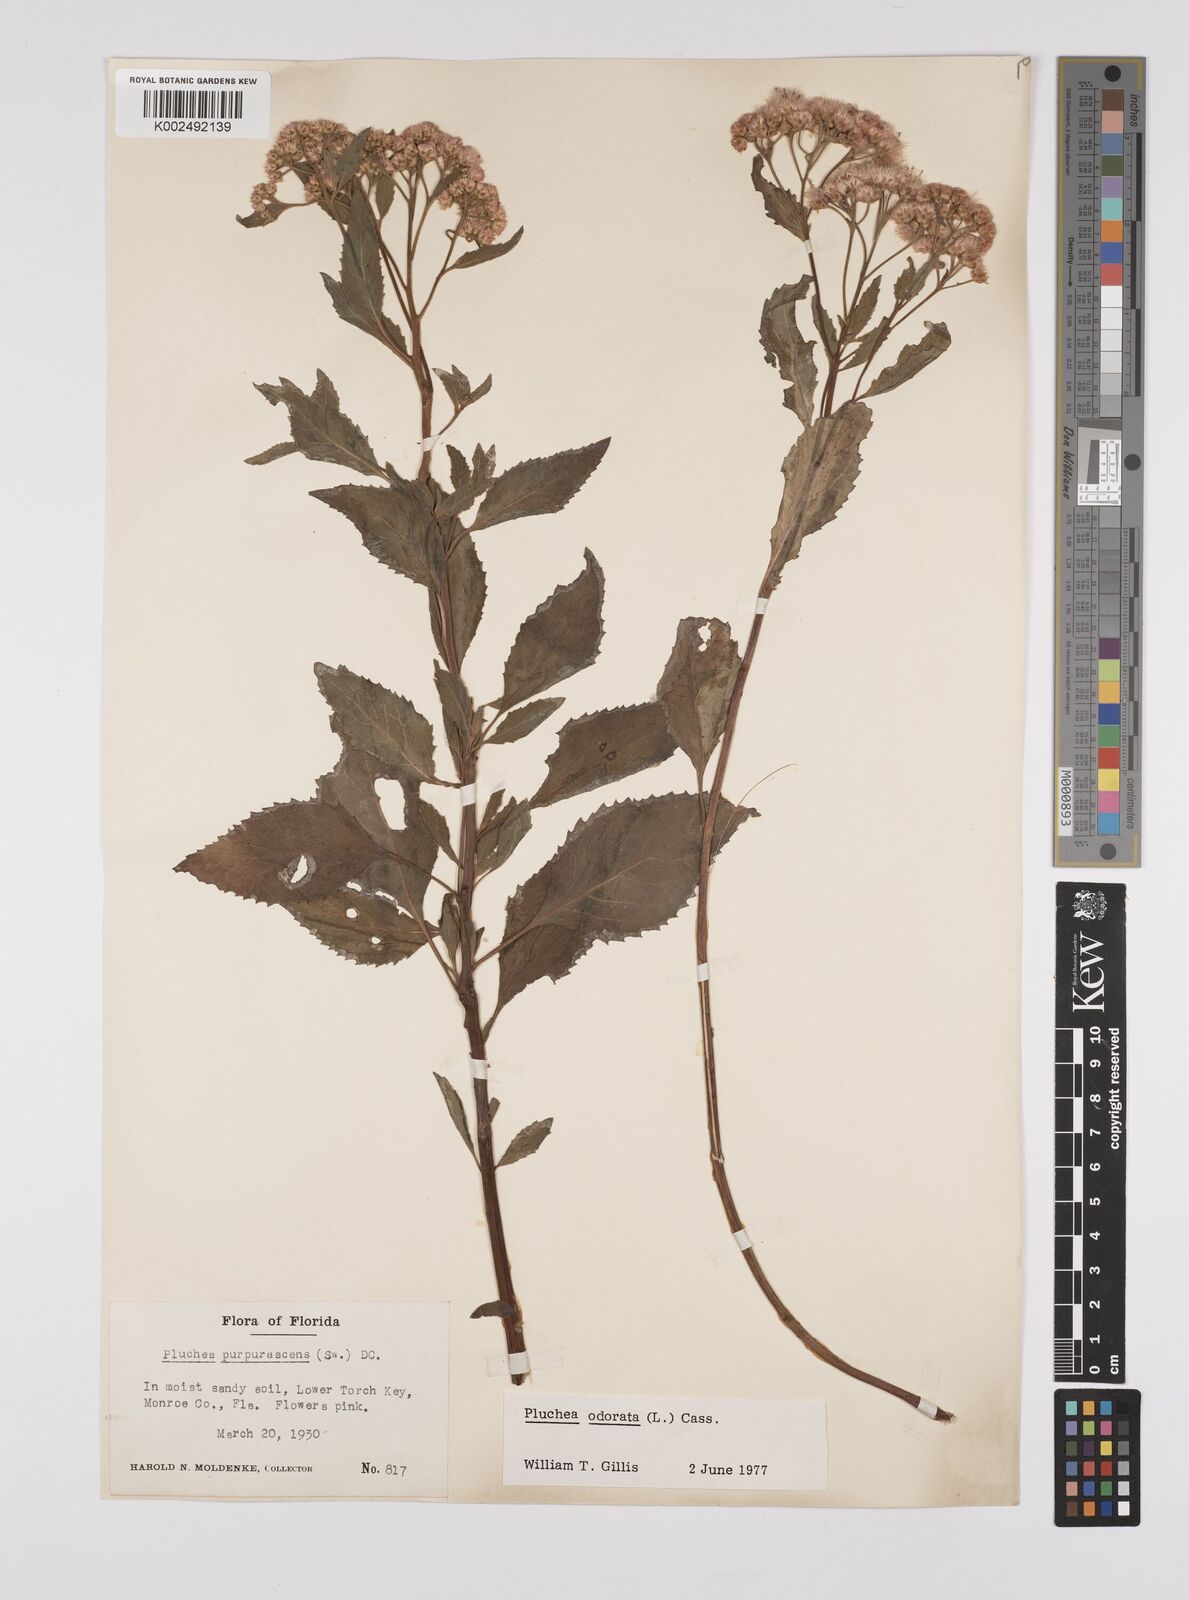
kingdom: Plantae
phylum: Tracheophyta
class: Magnoliopsida
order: Asterales
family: Asteraceae
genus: Pluchea
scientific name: Pluchea odorata
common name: Saltmarsh fleabane
